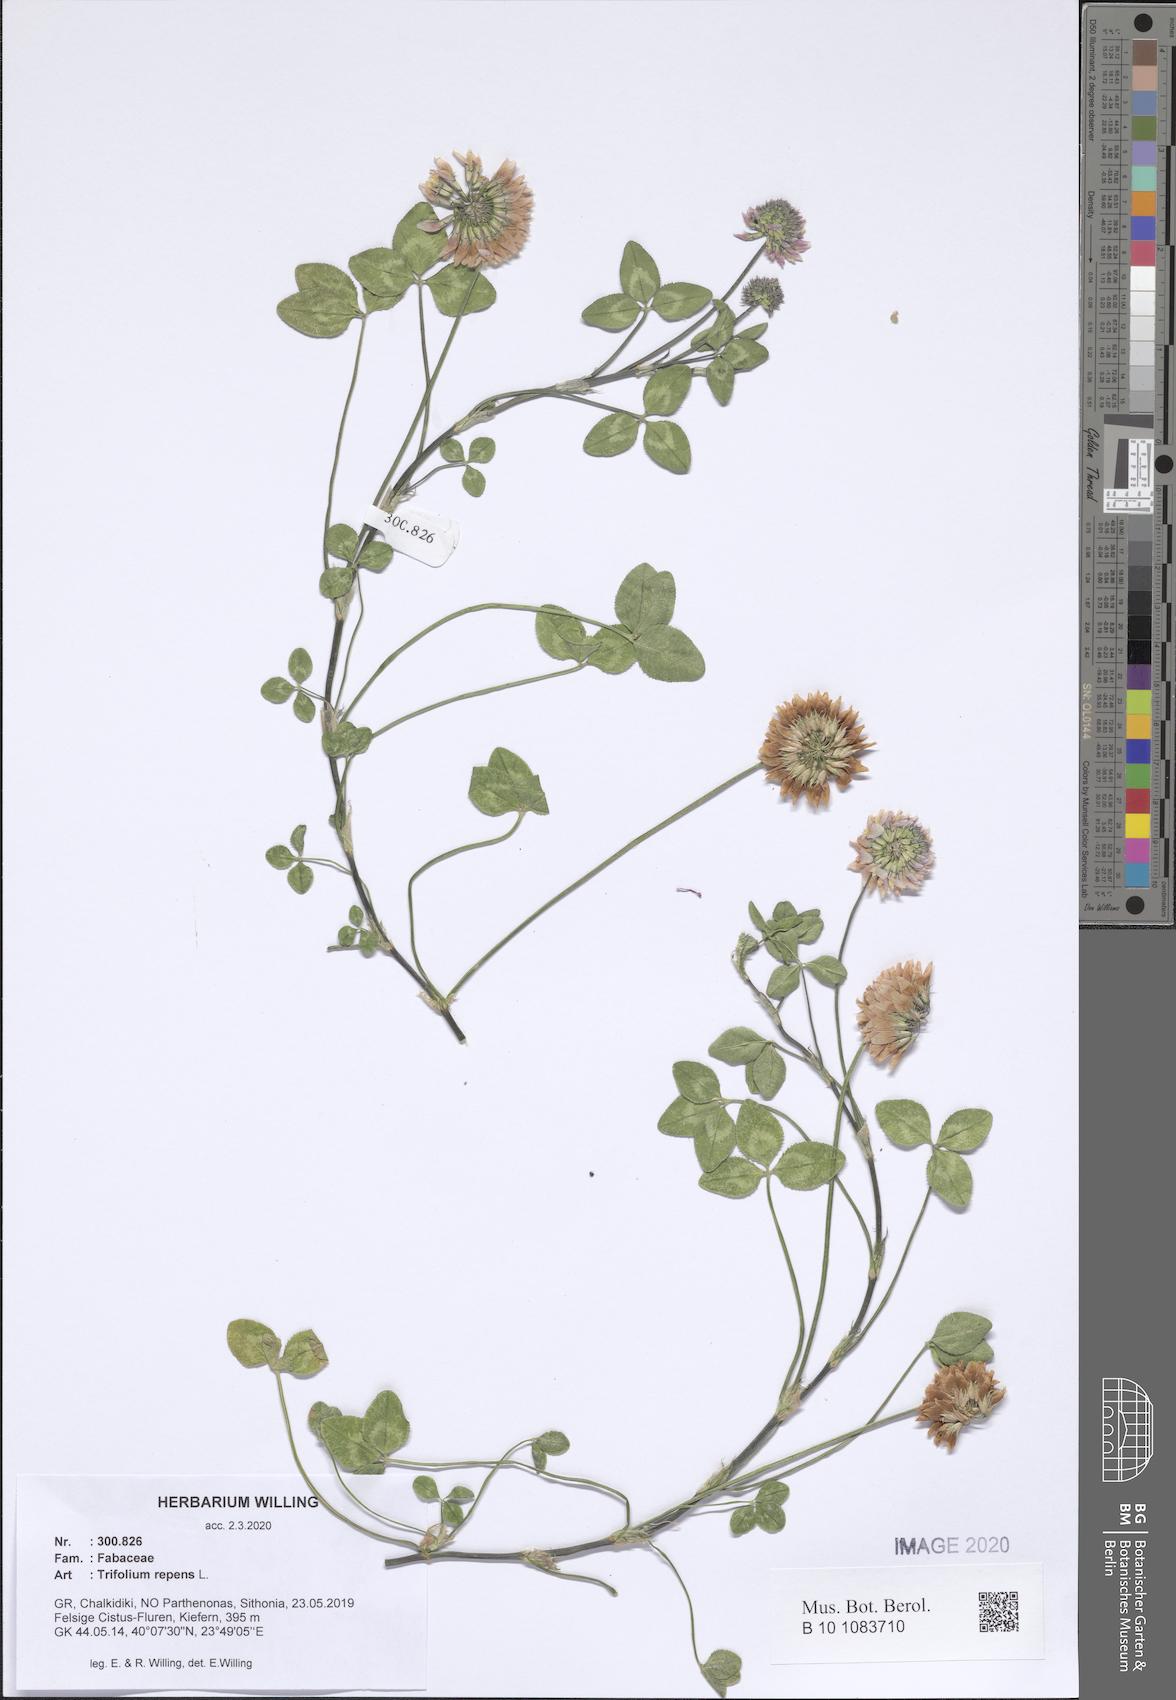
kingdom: Plantae
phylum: Tracheophyta
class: Magnoliopsida
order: Fabales
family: Fabaceae
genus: Trifolium
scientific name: Trifolium repens
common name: White clover
